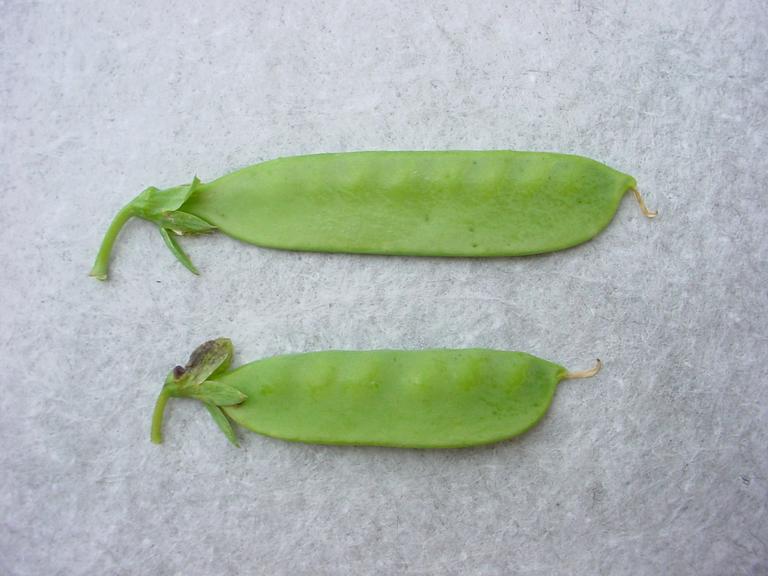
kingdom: Plantae
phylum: Tracheophyta
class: Magnoliopsida
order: Fabales
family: Fabaceae
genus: Lathyrus
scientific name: Lathyrus oleraceus
